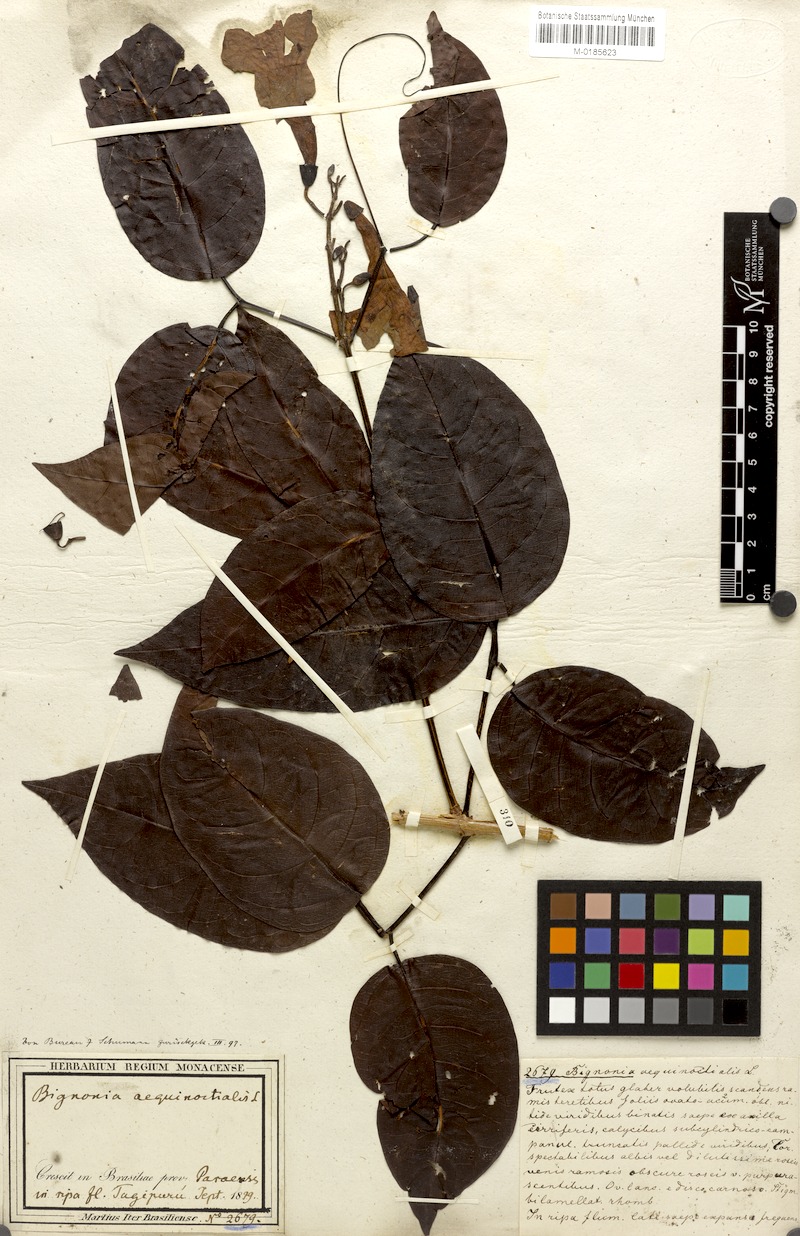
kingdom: Plantae
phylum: Tracheophyta
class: Magnoliopsida
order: Lamiales
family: Bignoniaceae
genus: Bignonia
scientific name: Bignonia aequinoctialis
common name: Garlicvine
